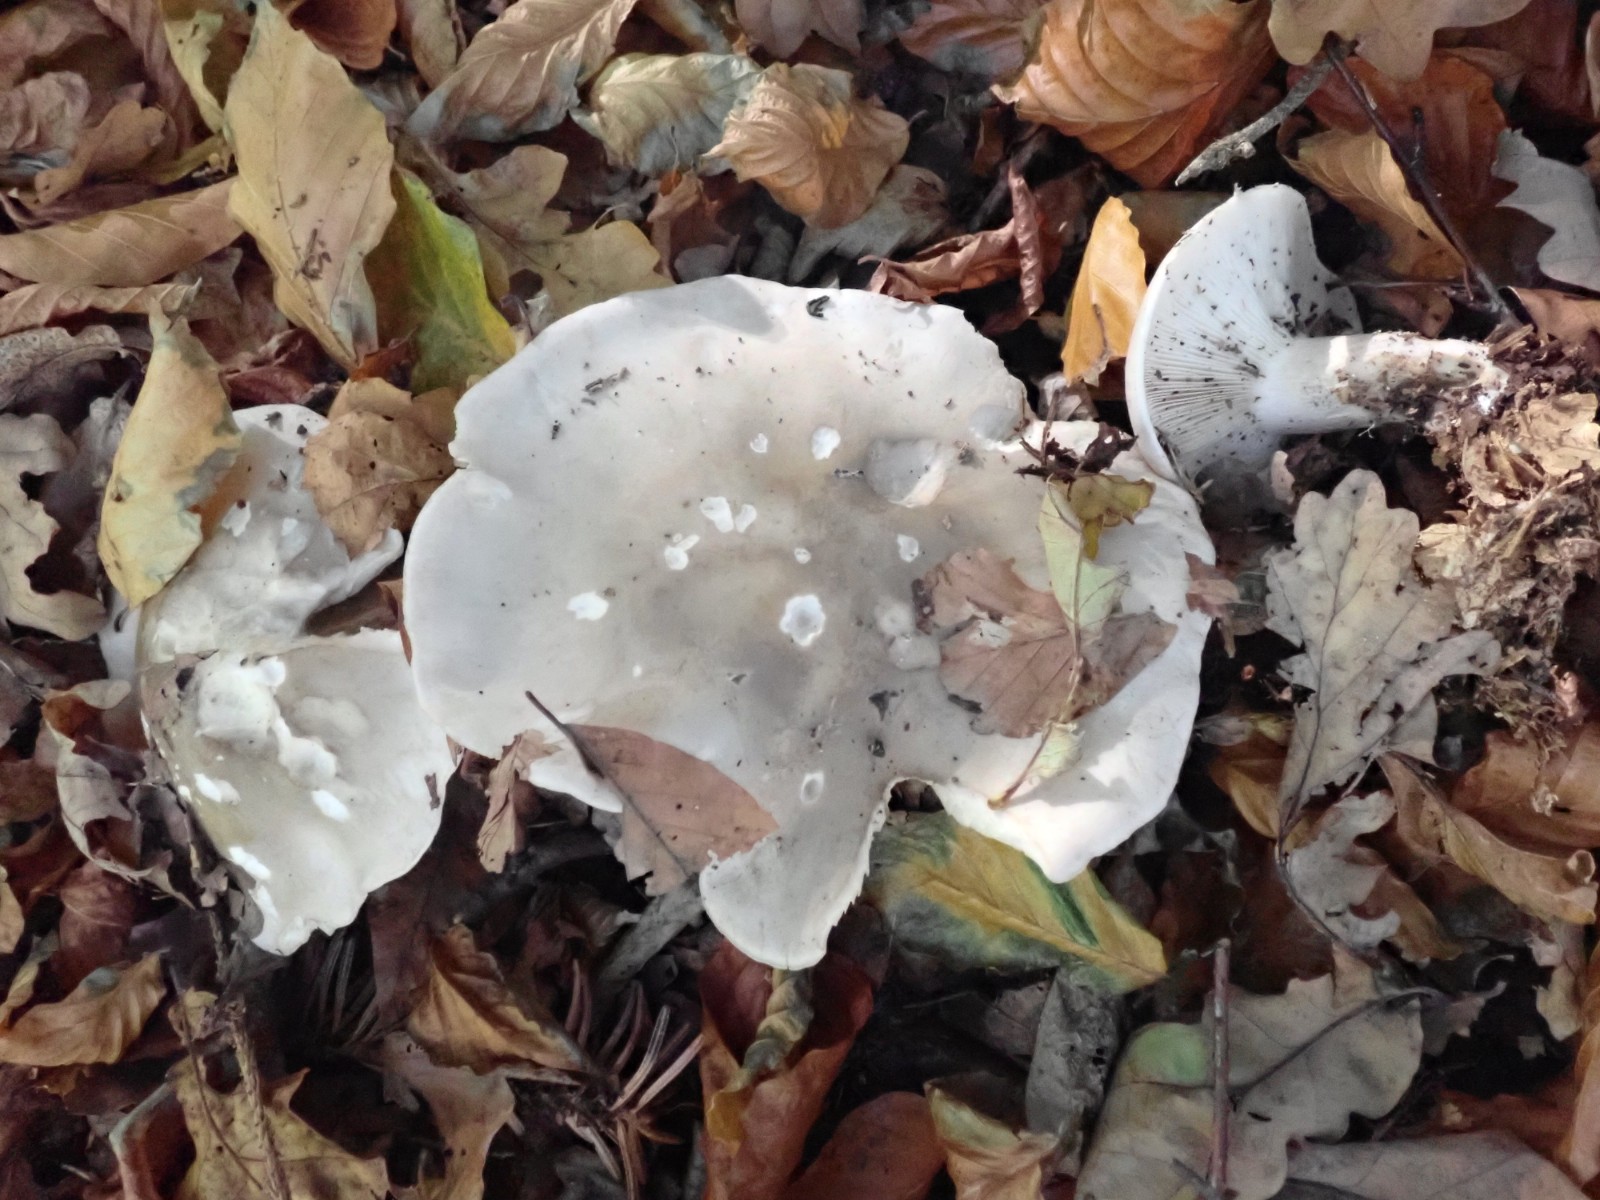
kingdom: Fungi
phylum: Basidiomycota
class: Agaricomycetes
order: Agaricales
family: Tricholomataceae
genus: Clitocybe
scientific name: Clitocybe nebularis
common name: tåge-tragthat
